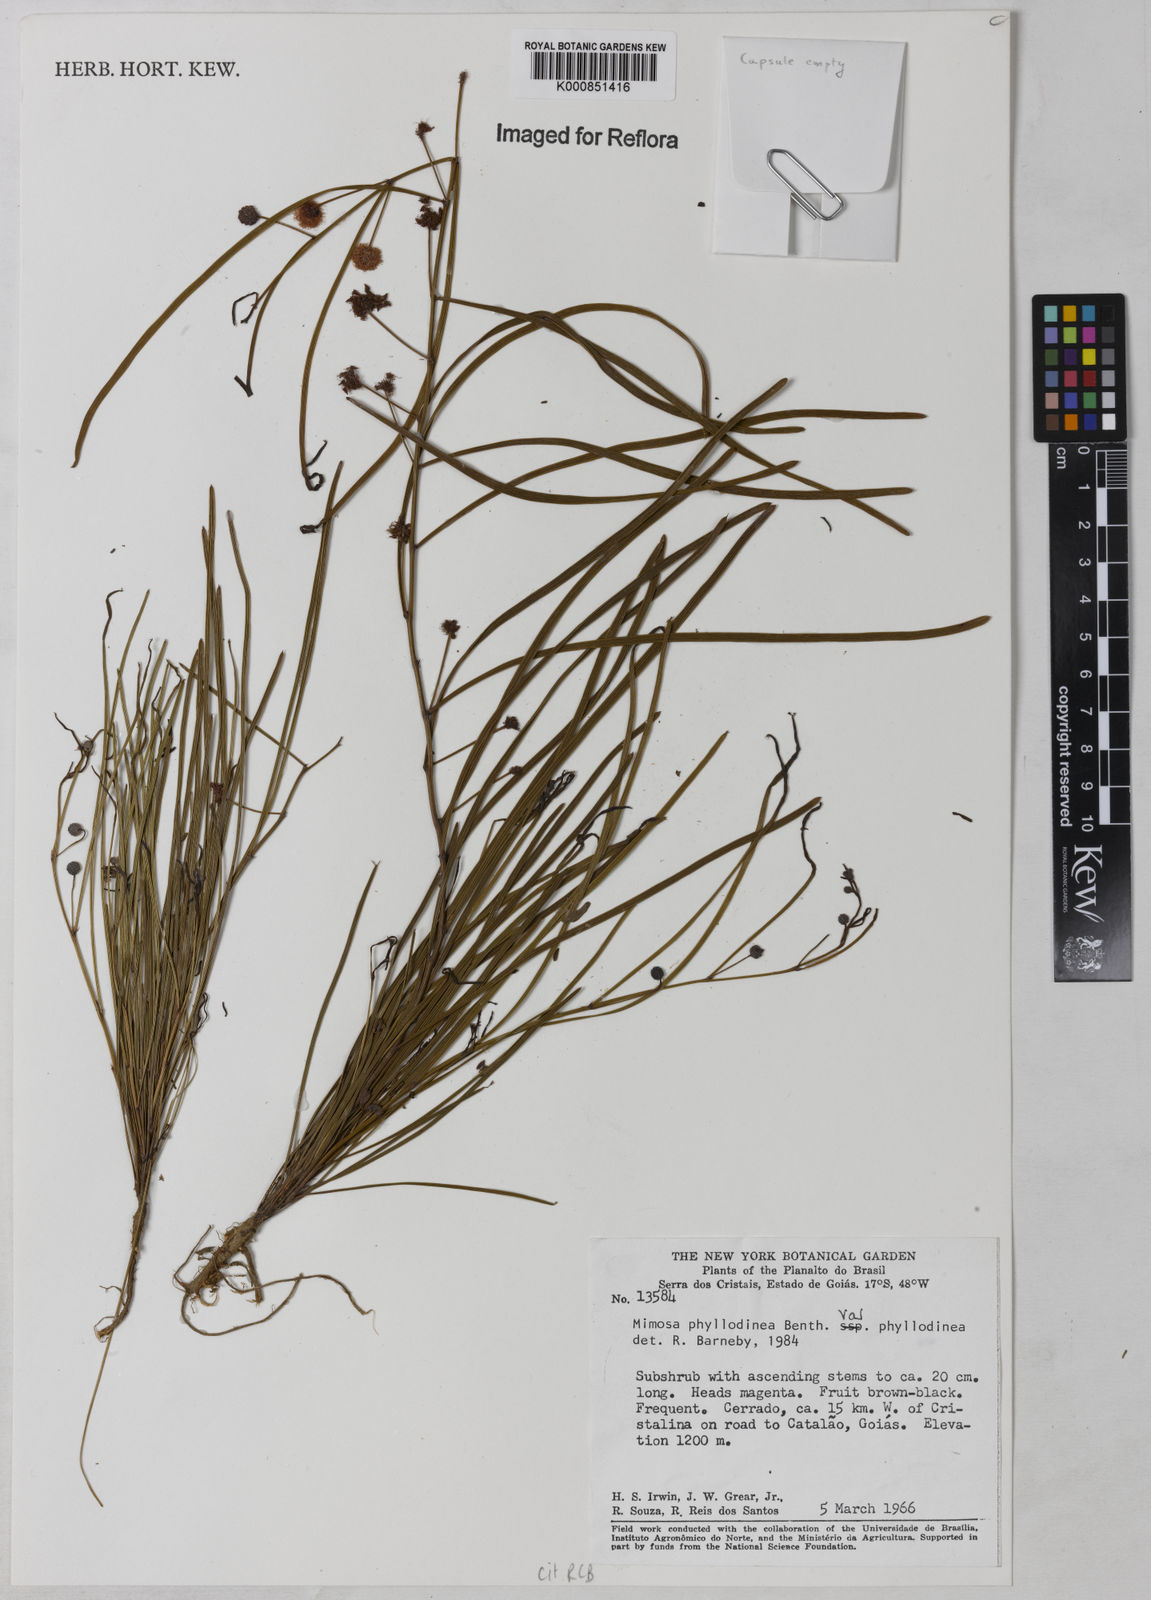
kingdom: Plantae
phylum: Tracheophyta
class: Magnoliopsida
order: Fabales
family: Fabaceae
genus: Mimosa
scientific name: Mimosa phyllodinea
